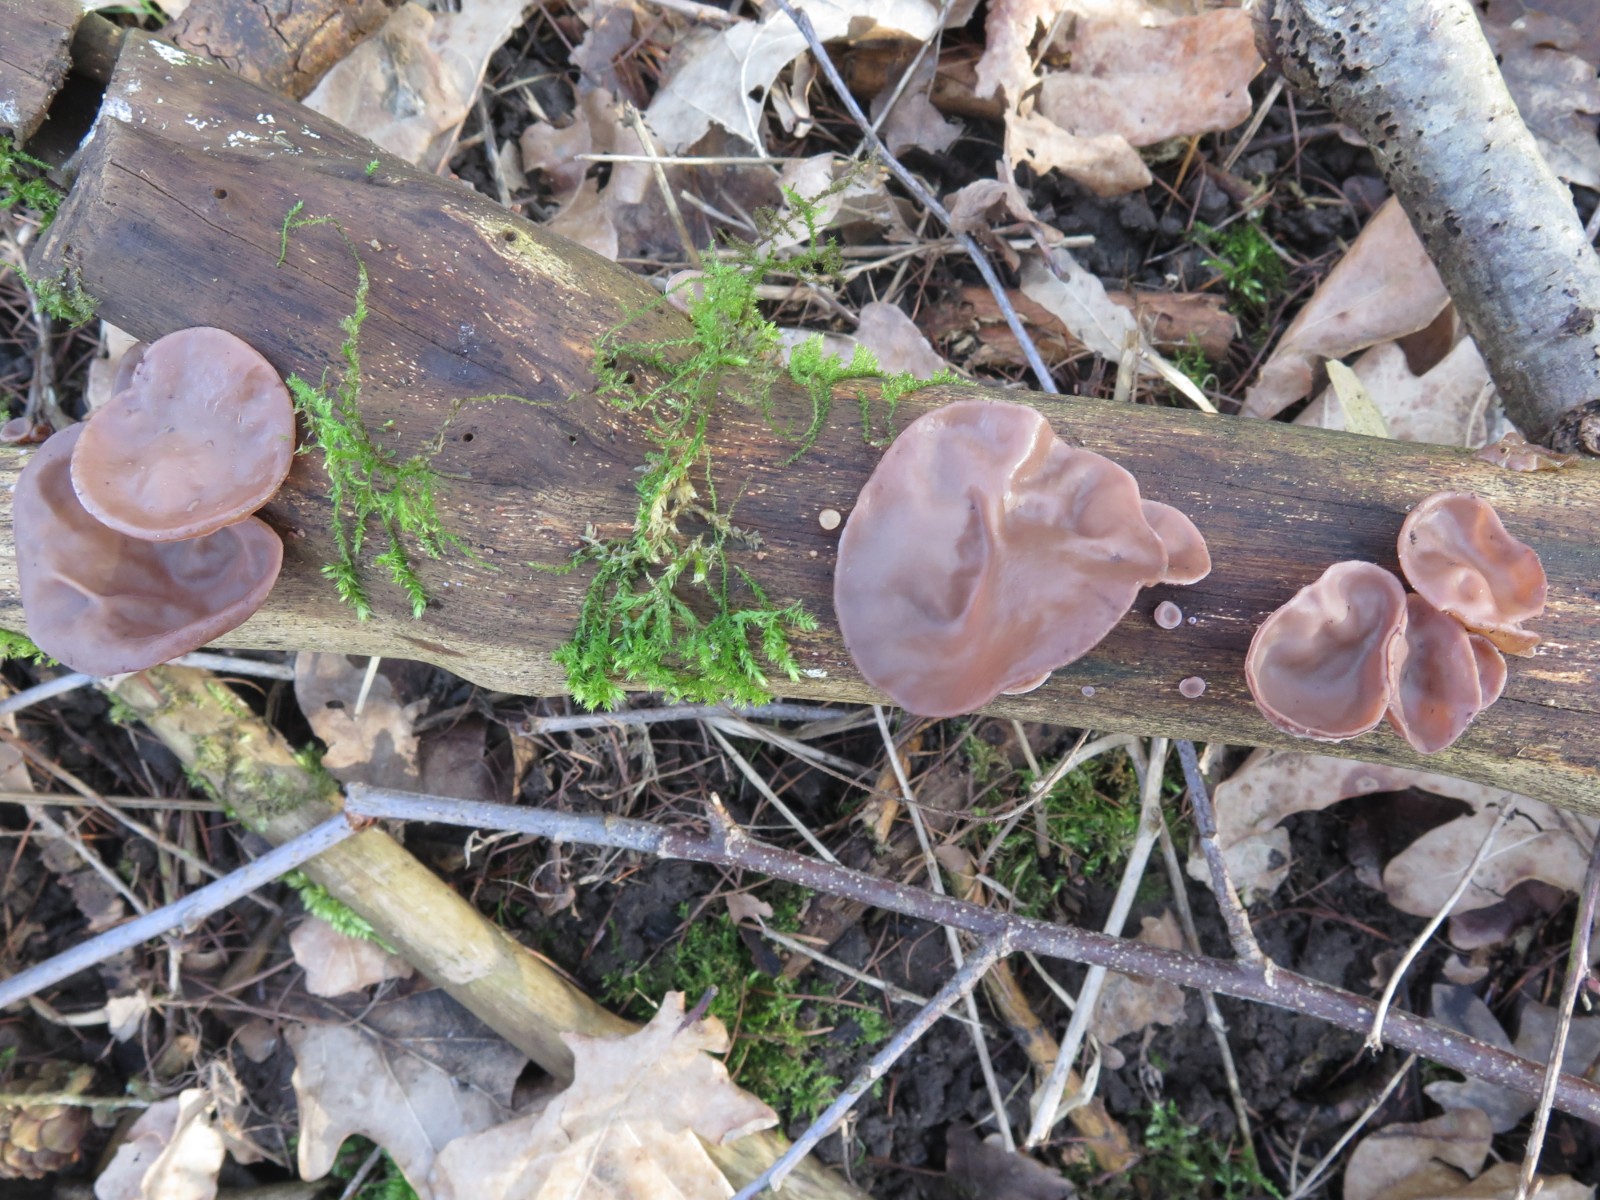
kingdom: Fungi
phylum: Basidiomycota
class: Agaricomycetes
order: Auriculariales
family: Auriculariaceae
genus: Auricularia
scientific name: Auricularia auricula-judae
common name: almindelig judasøre
